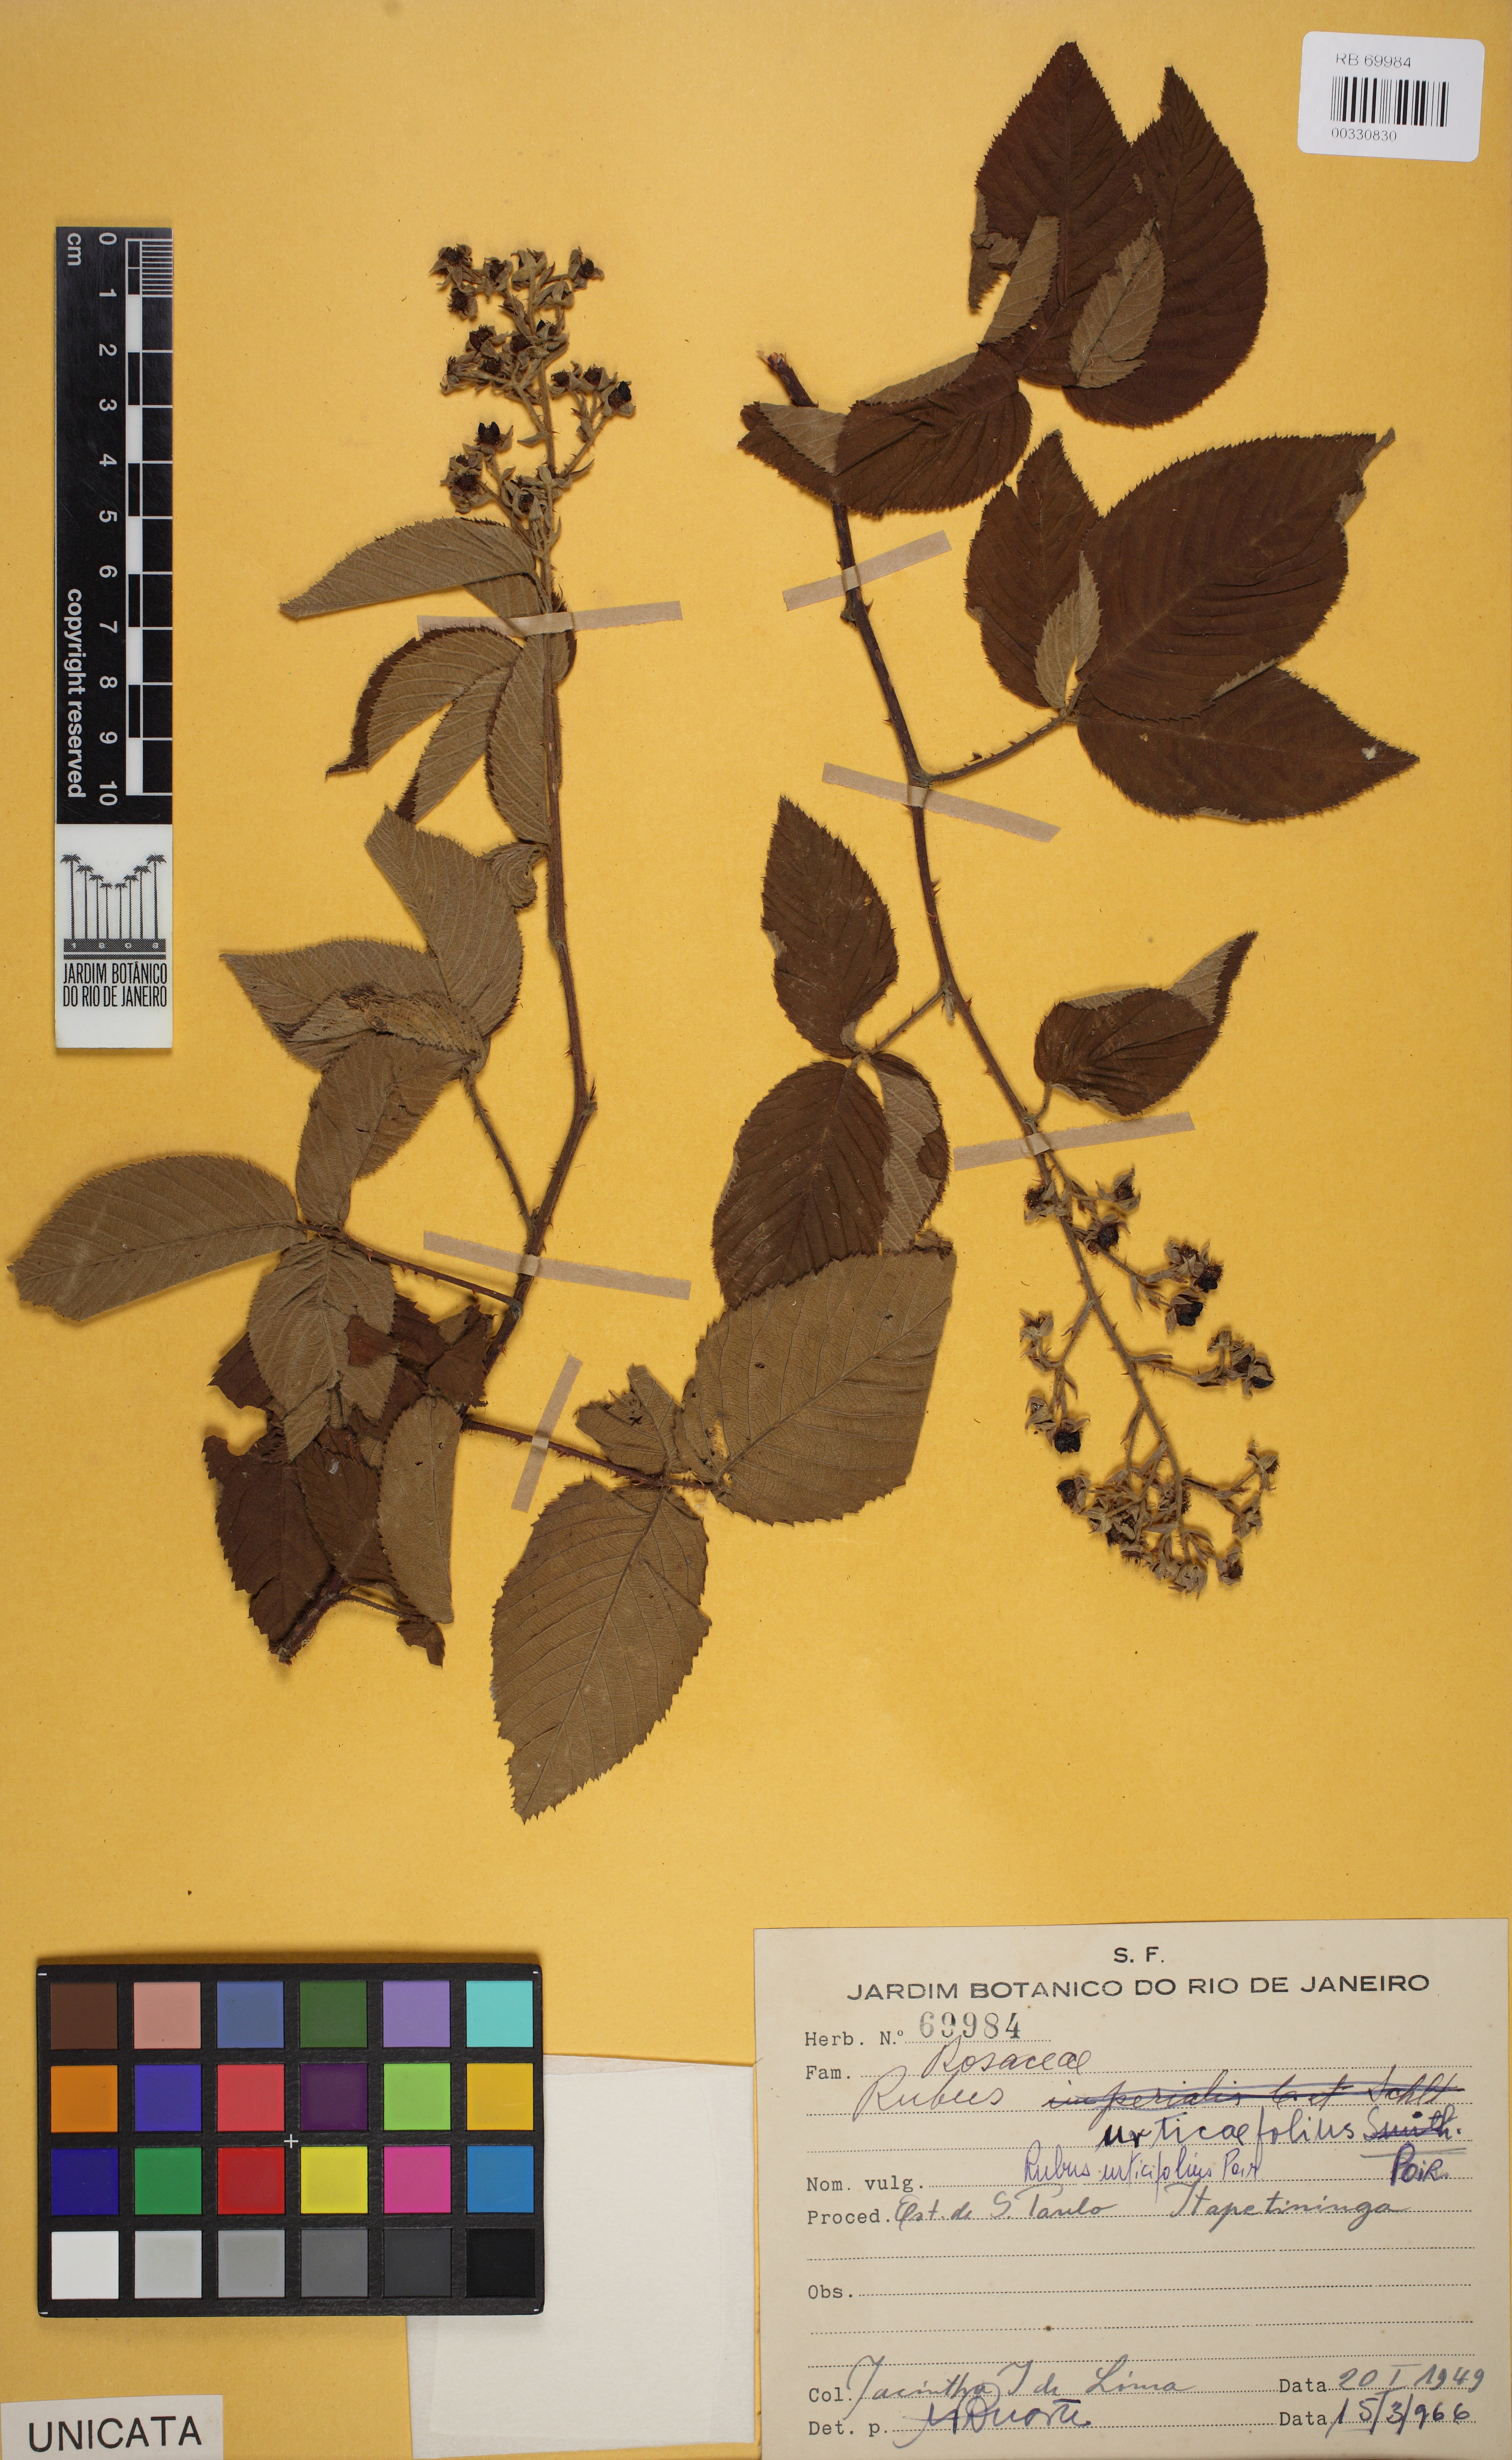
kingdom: Plantae
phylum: Tracheophyta
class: Magnoliopsida
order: Rosales
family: Rosaceae
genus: Rubus
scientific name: Rubus urticifolius
